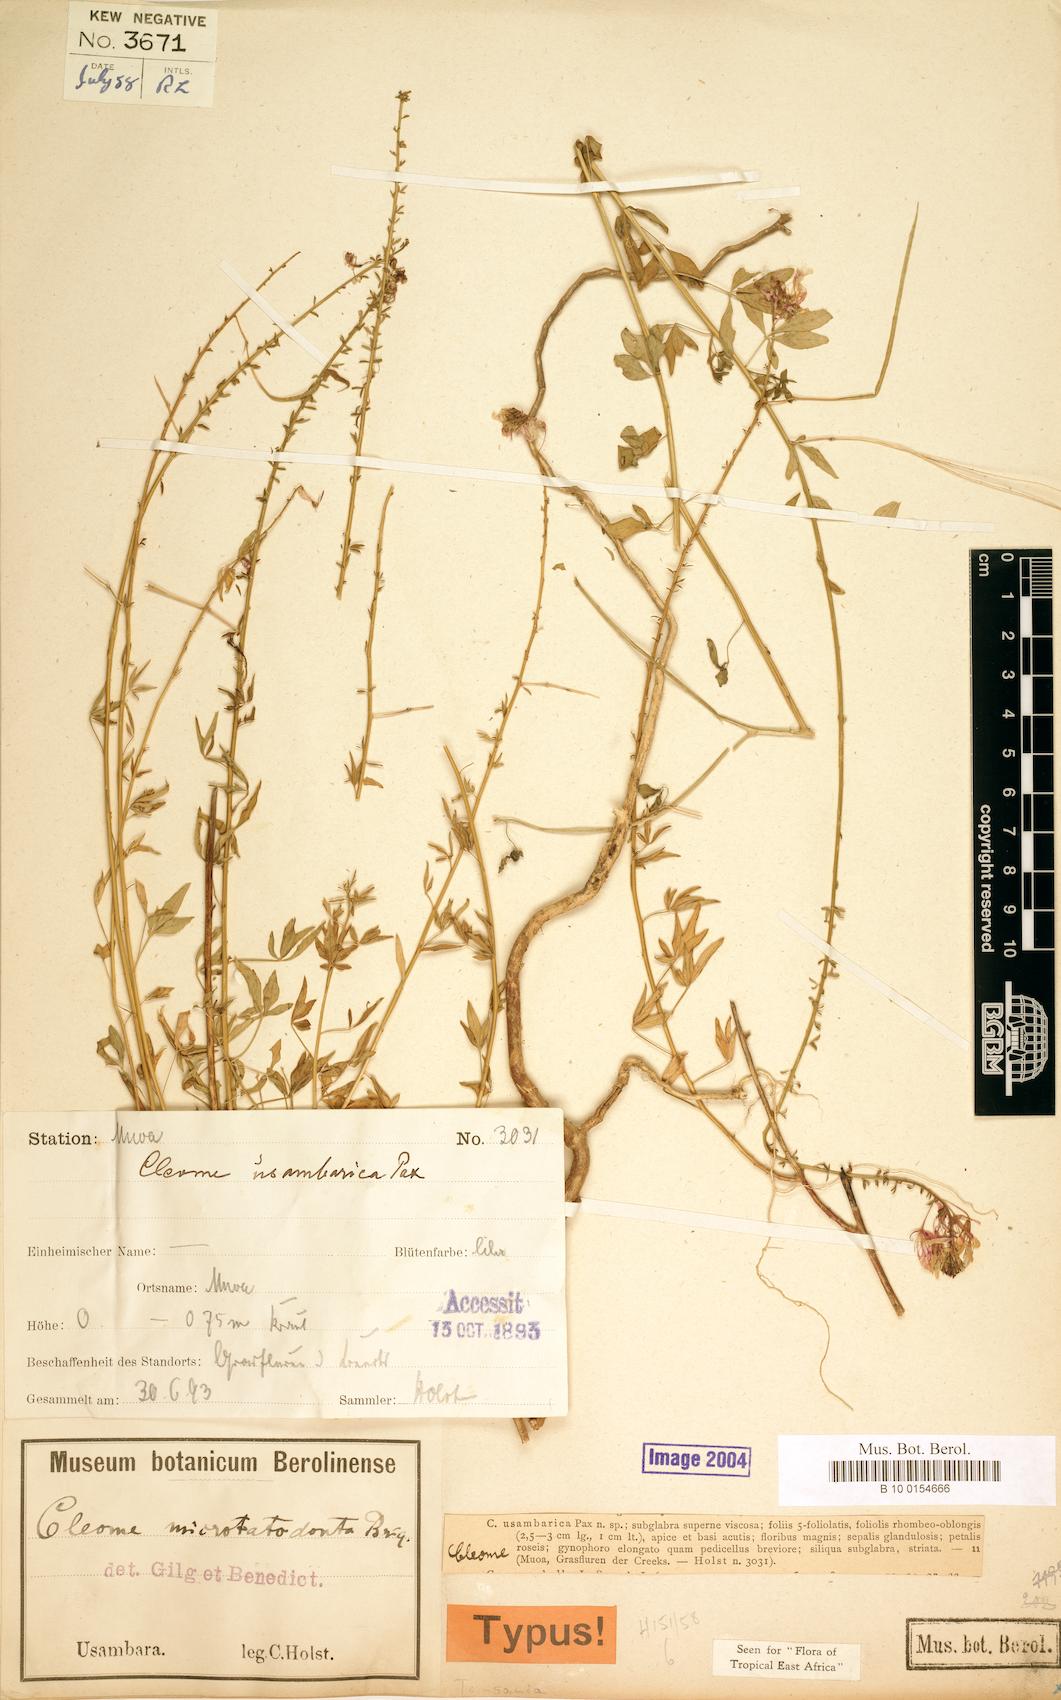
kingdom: Plantae
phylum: Tracheophyta
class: Magnoliopsida
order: Brassicales
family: Cleomaceae
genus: Sieruela
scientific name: Sieruela usambarica
